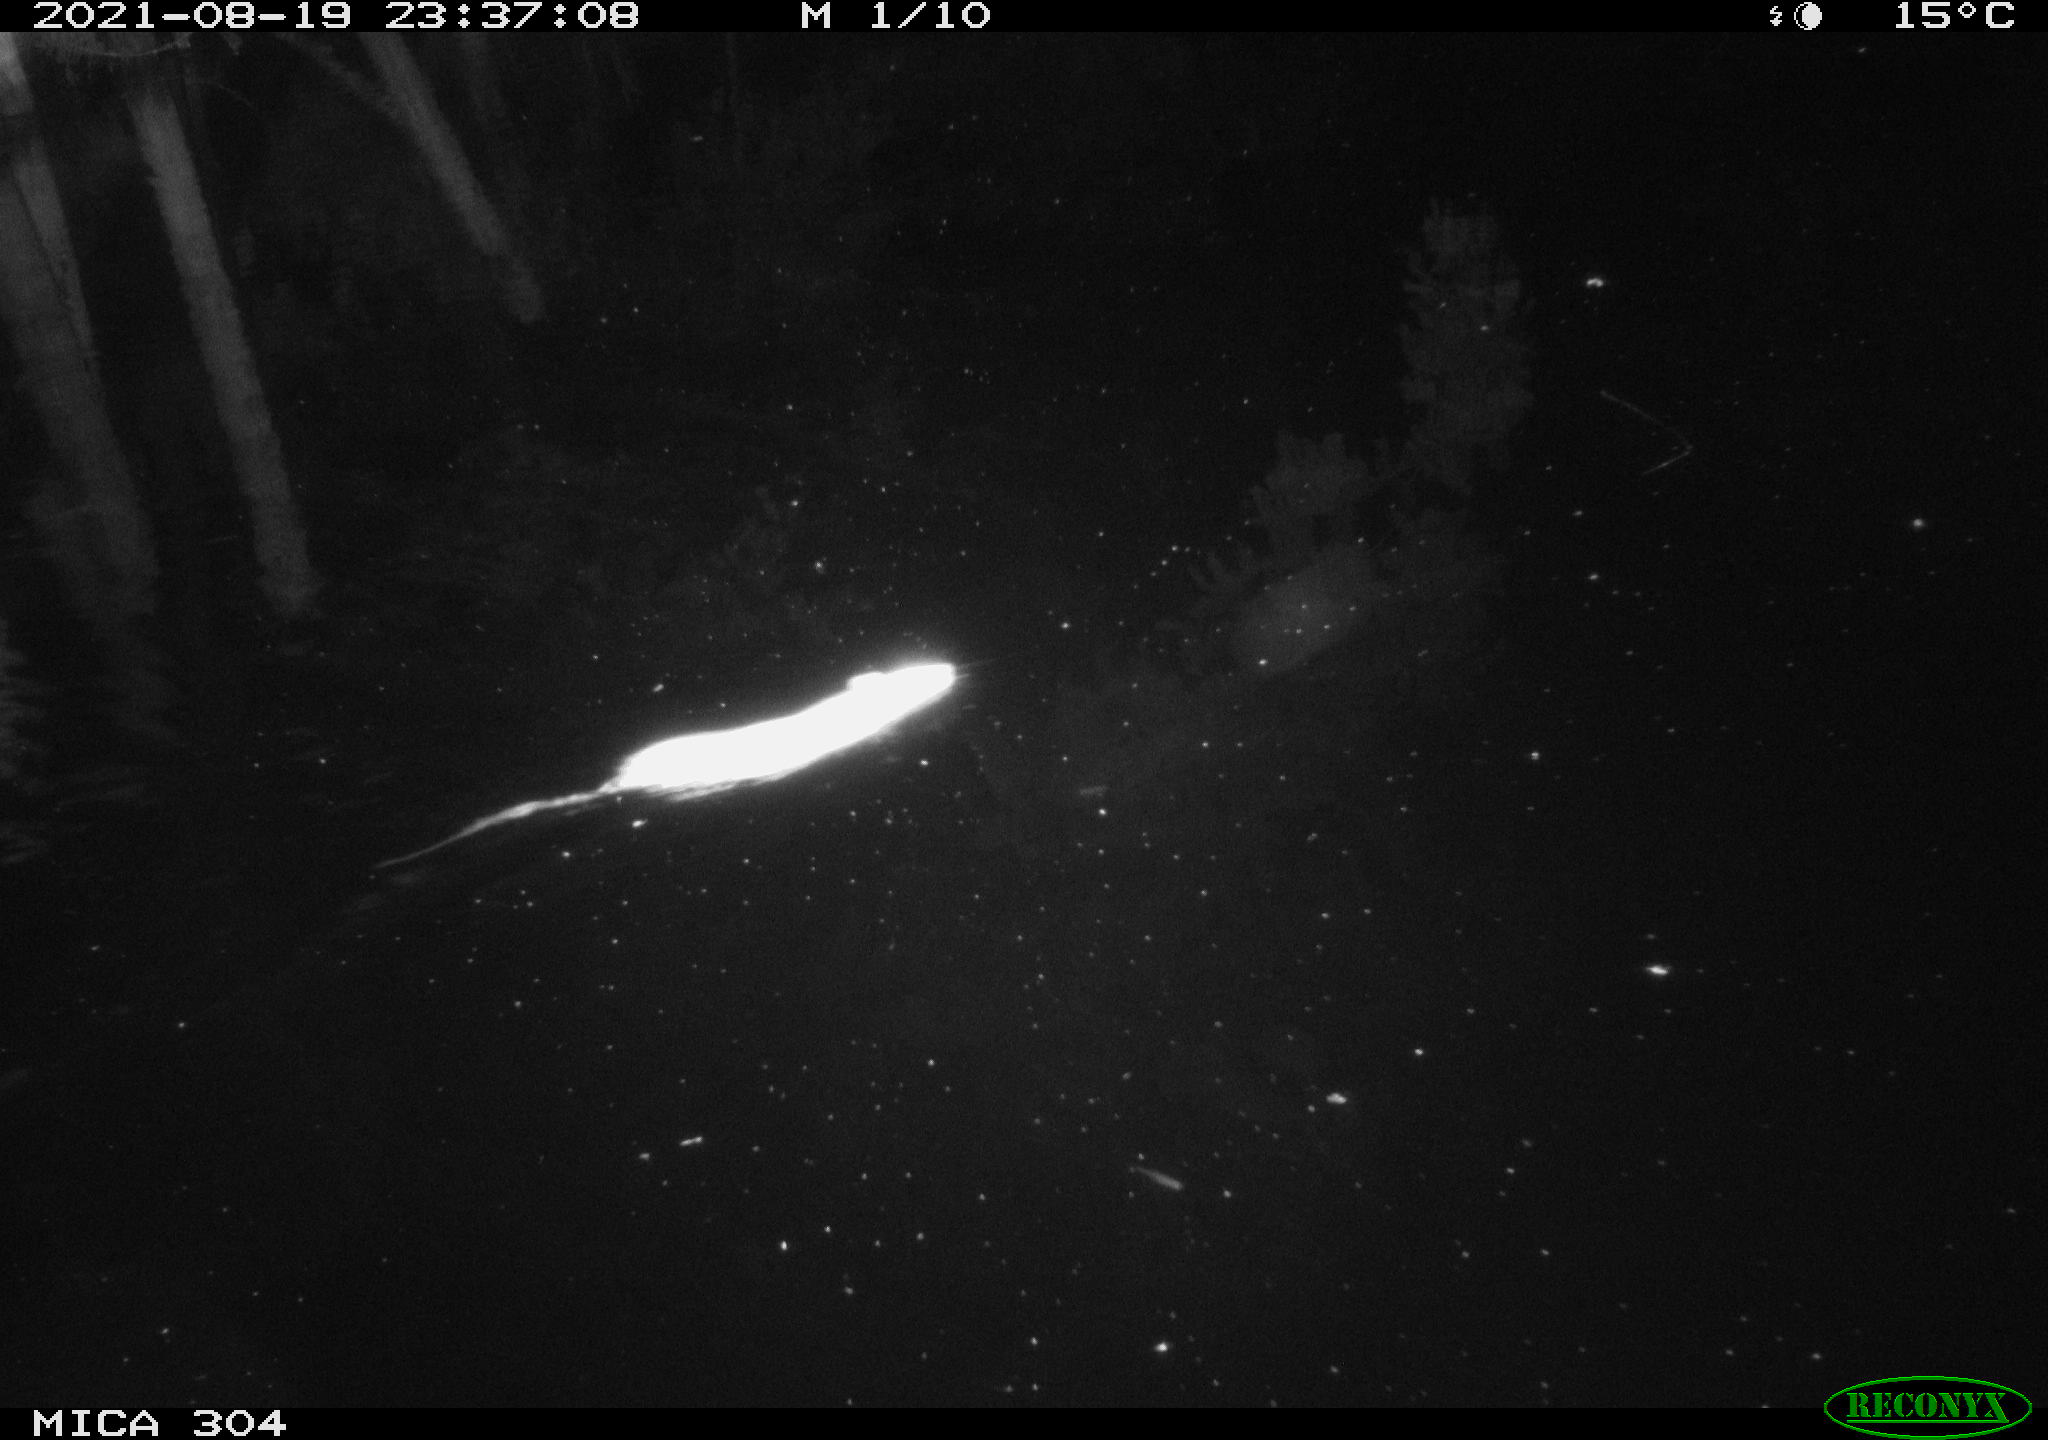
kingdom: Animalia
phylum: Chordata
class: Mammalia
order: Rodentia
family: Muridae
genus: Rattus
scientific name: Rattus norvegicus
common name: Brown rat
